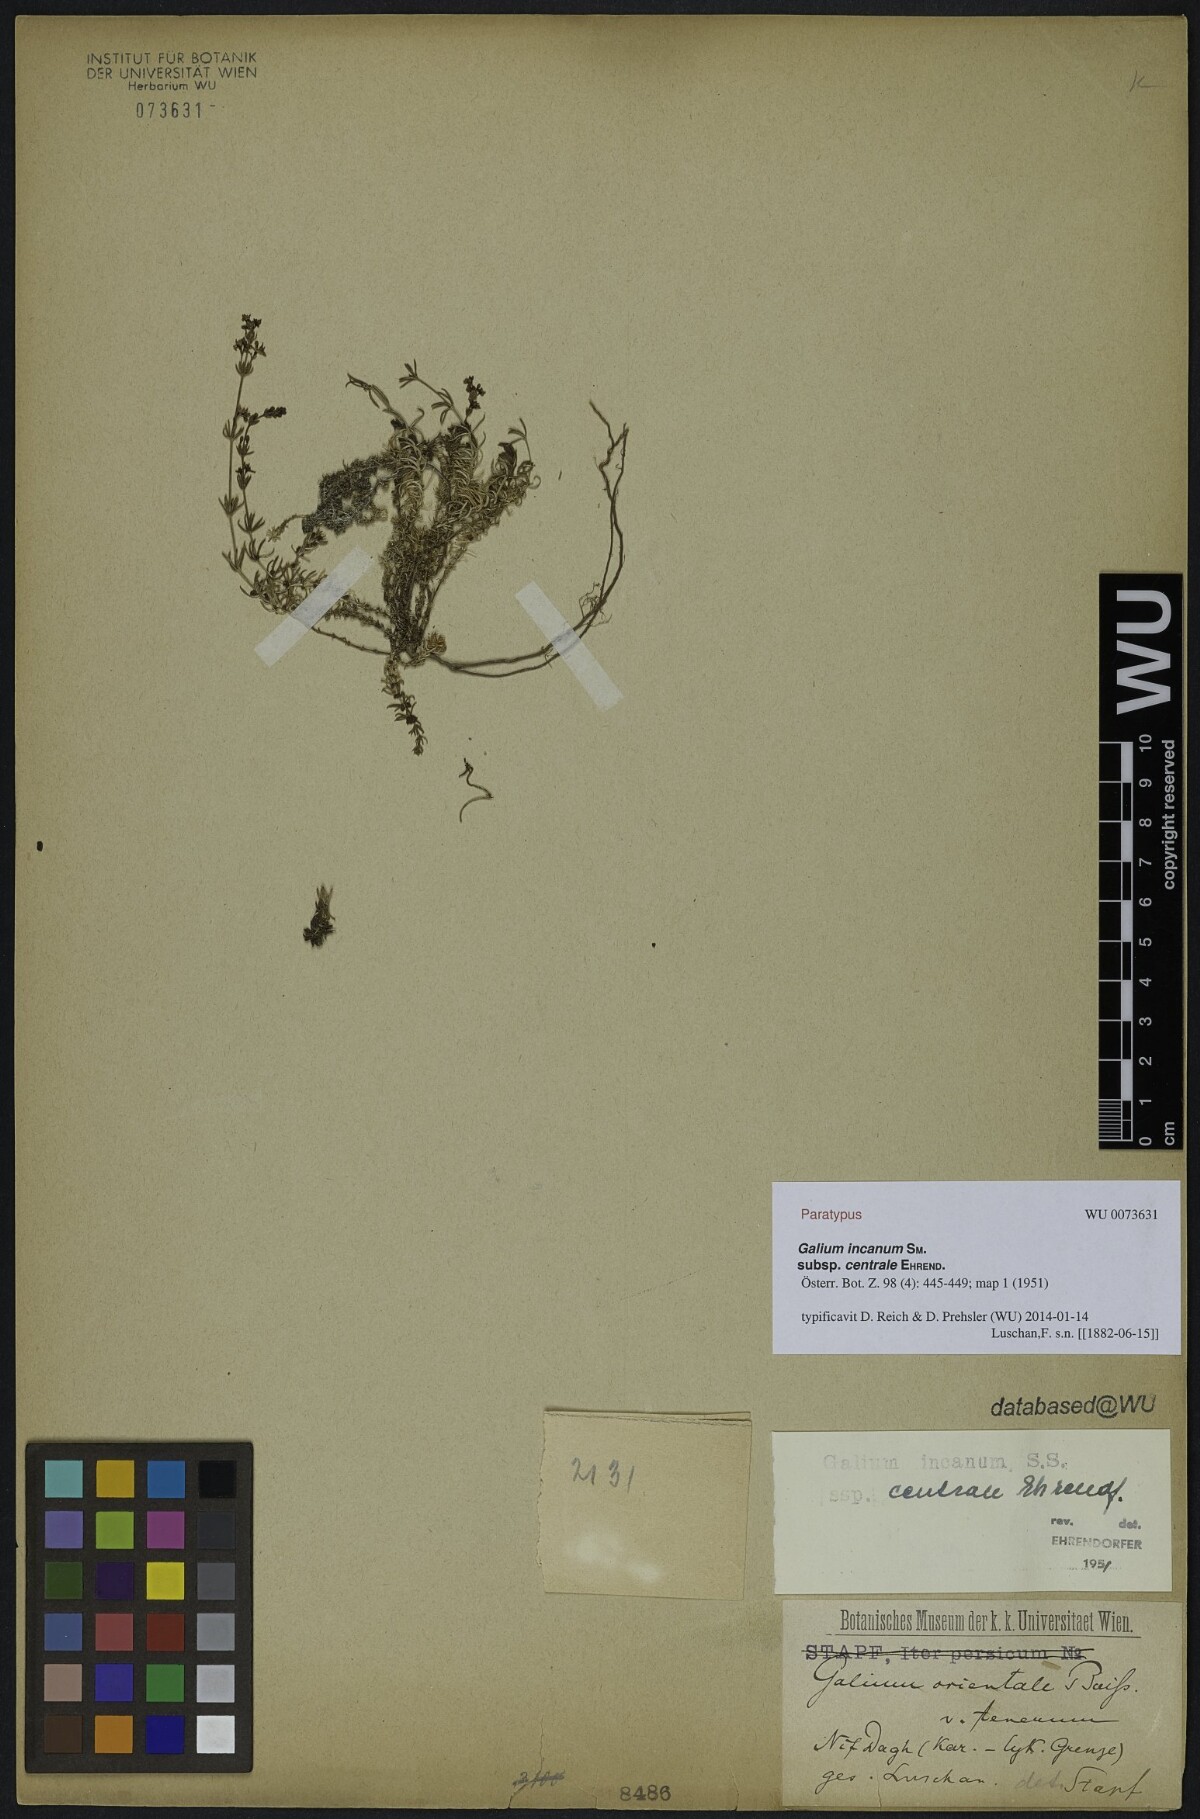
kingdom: Plantae
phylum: Tracheophyta
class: Magnoliopsida
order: Gentianales
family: Rubiaceae
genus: Galium
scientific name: Galium incanum
